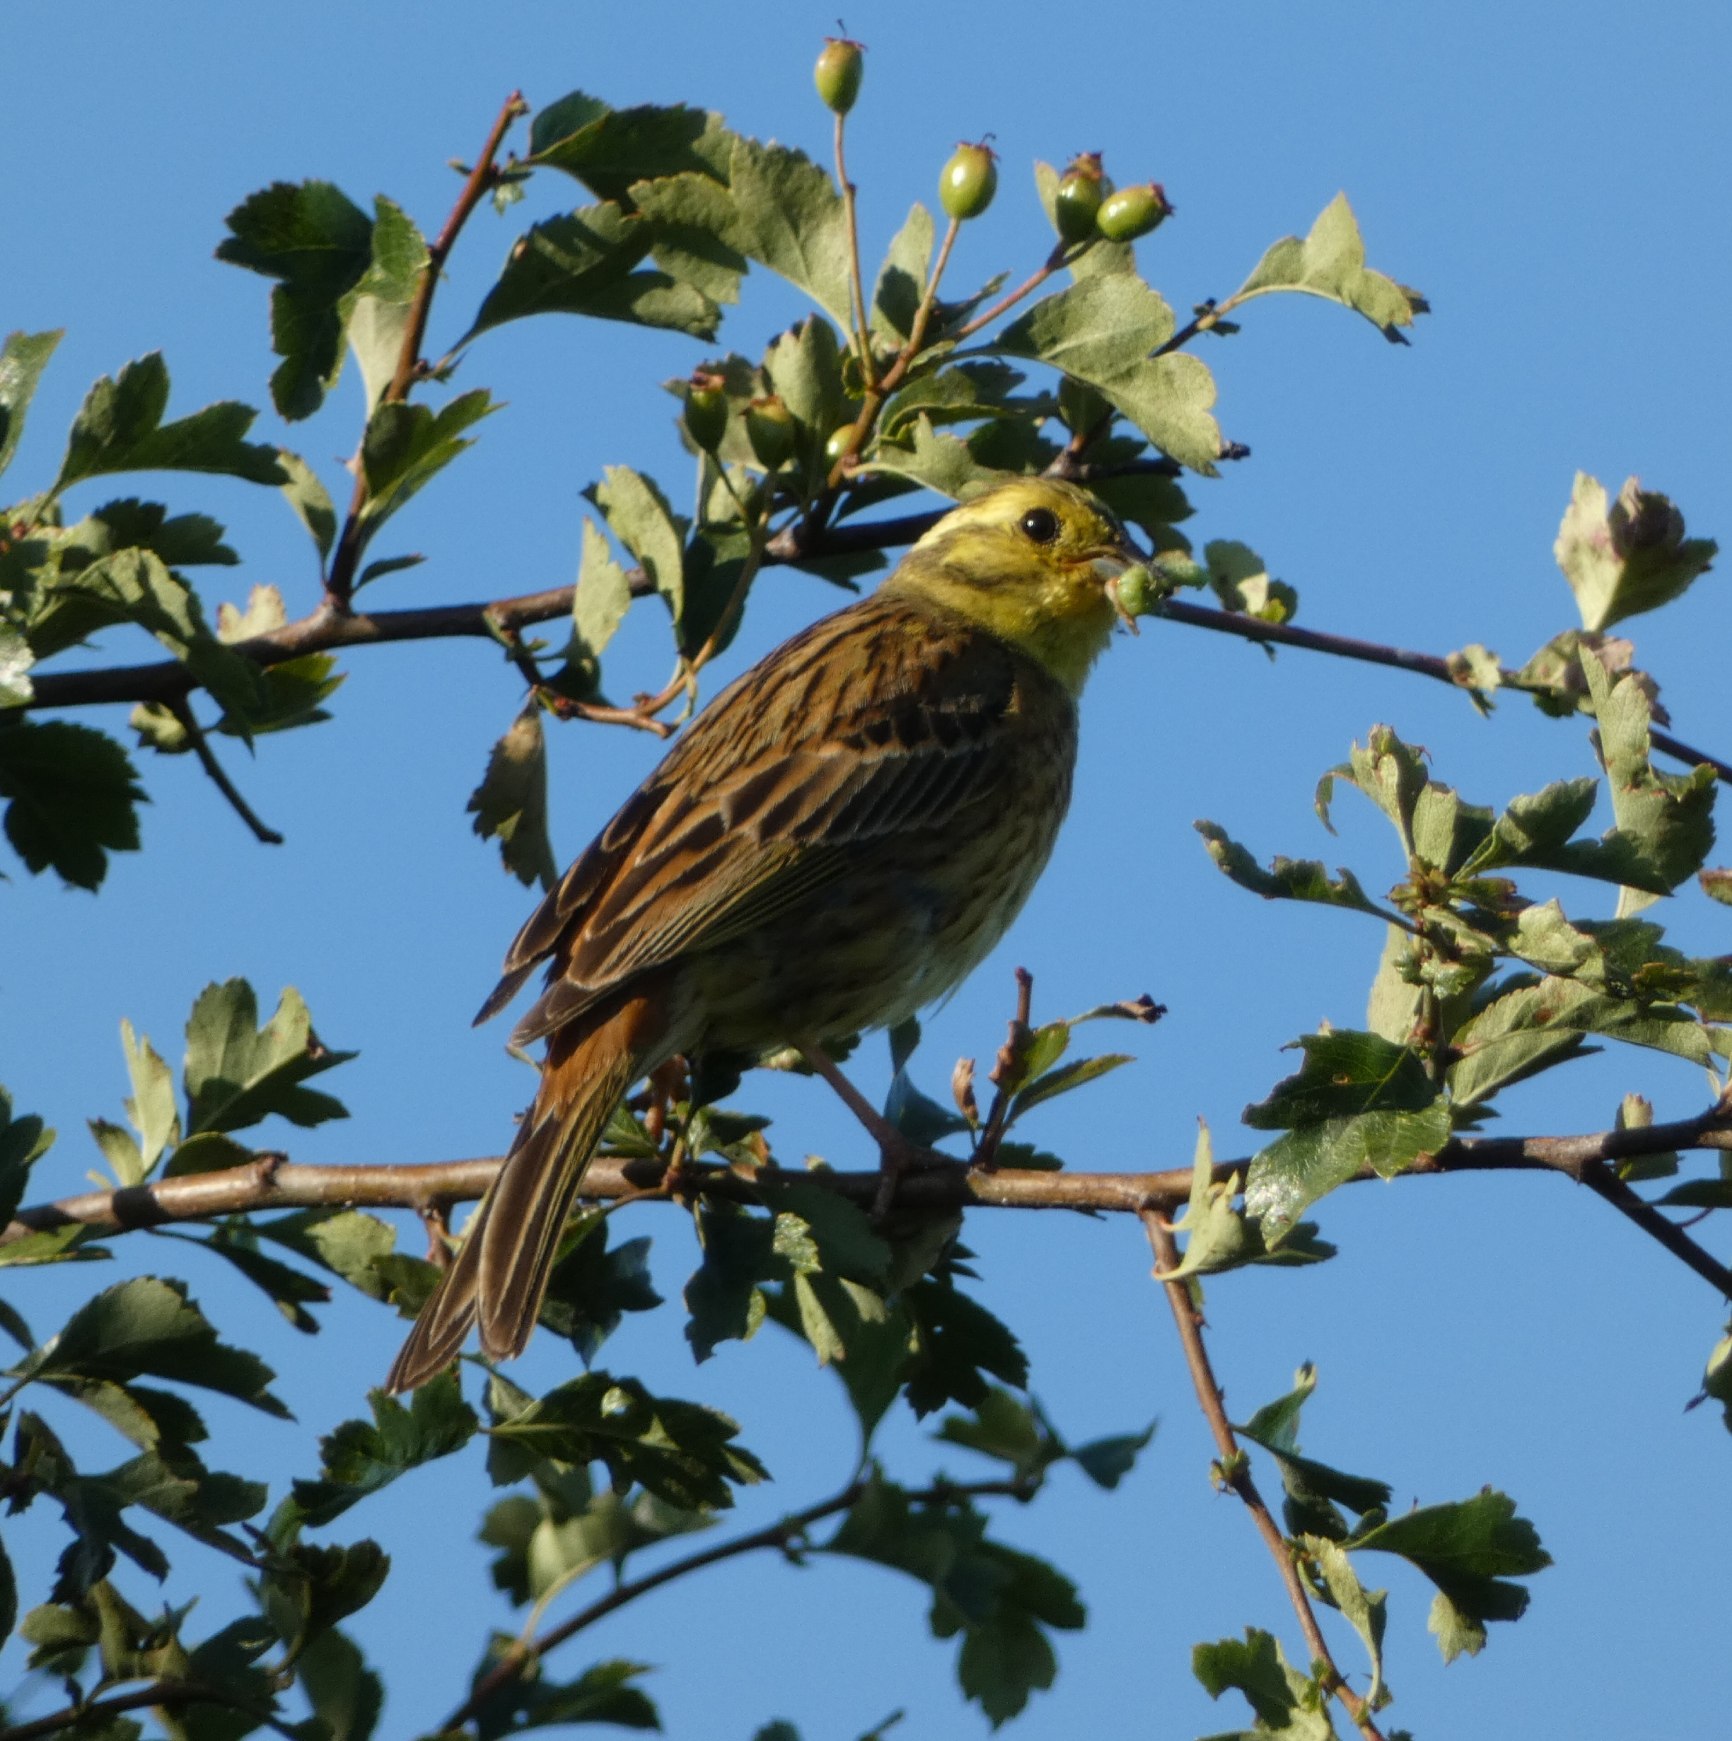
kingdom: Animalia
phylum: Chordata
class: Aves
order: Passeriformes
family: Emberizidae
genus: Emberiza
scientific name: Emberiza citrinella
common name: Gulspurv
